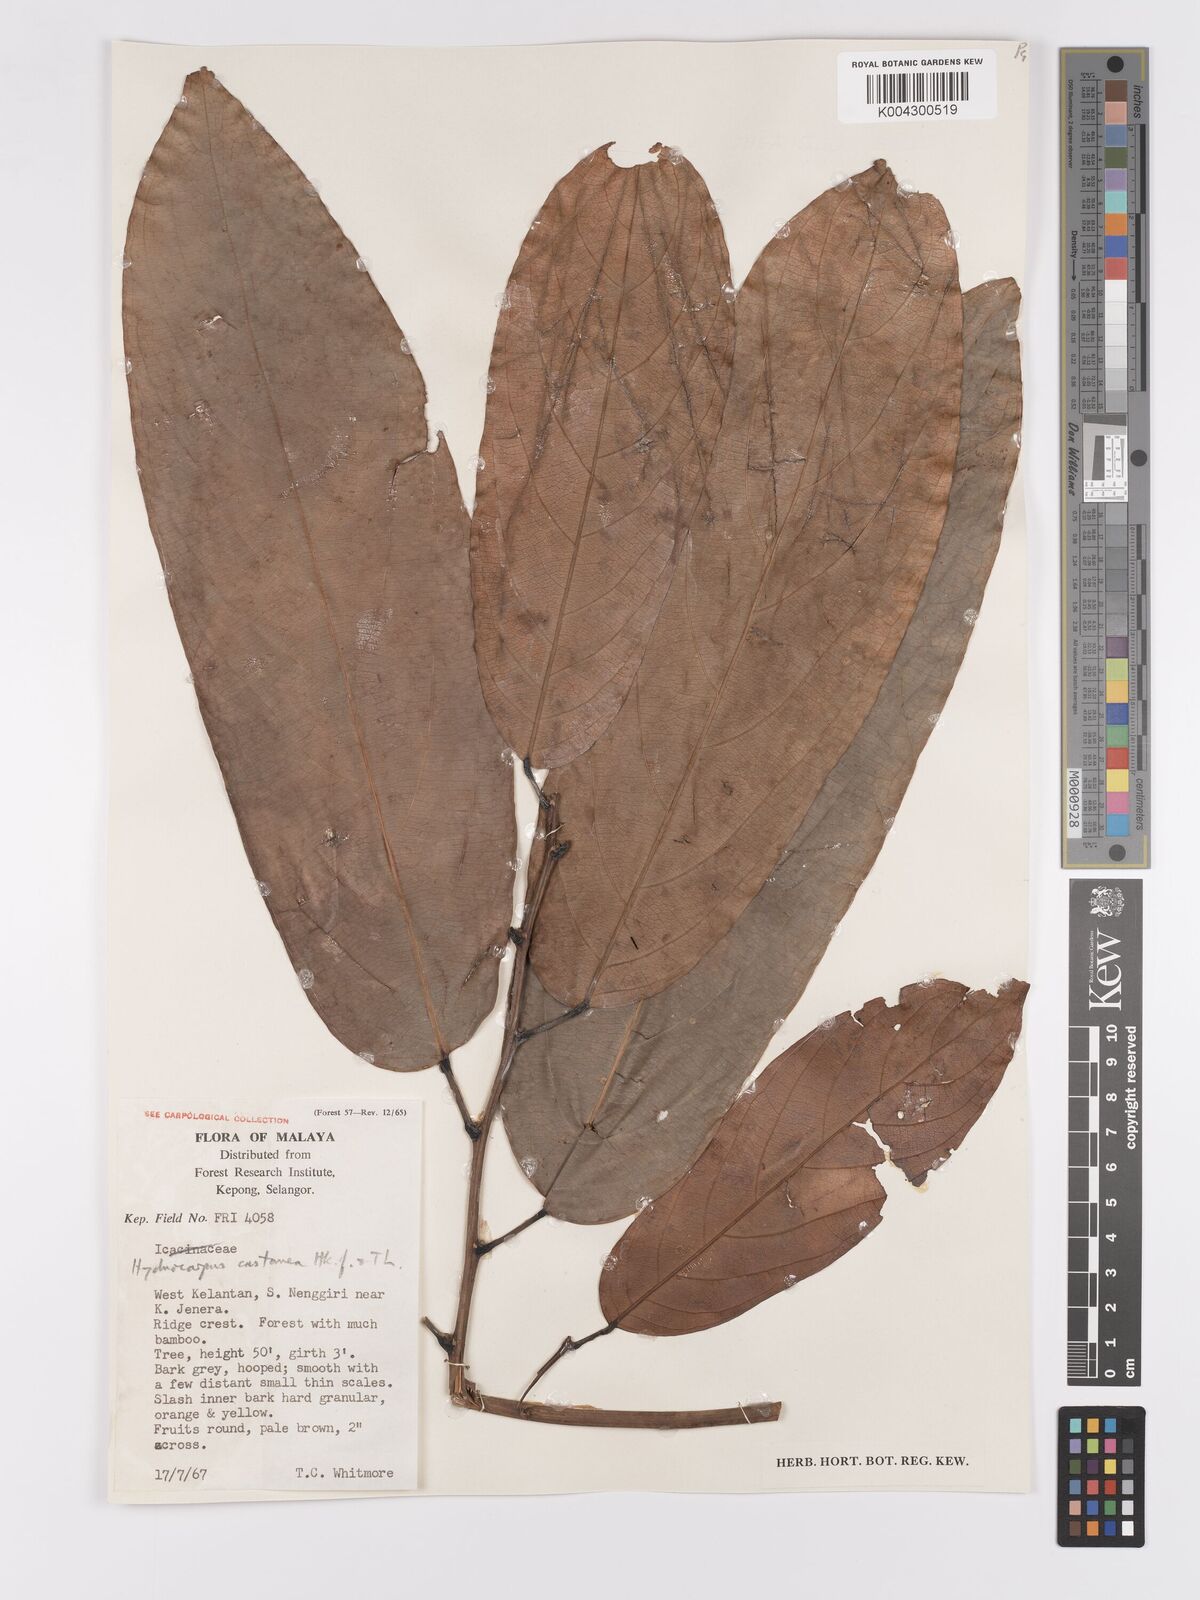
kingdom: Plantae
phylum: Tracheophyta
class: Magnoliopsida
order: Malpighiales
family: Achariaceae
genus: Hydnocarpus
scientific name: Hydnocarpus castaneus
